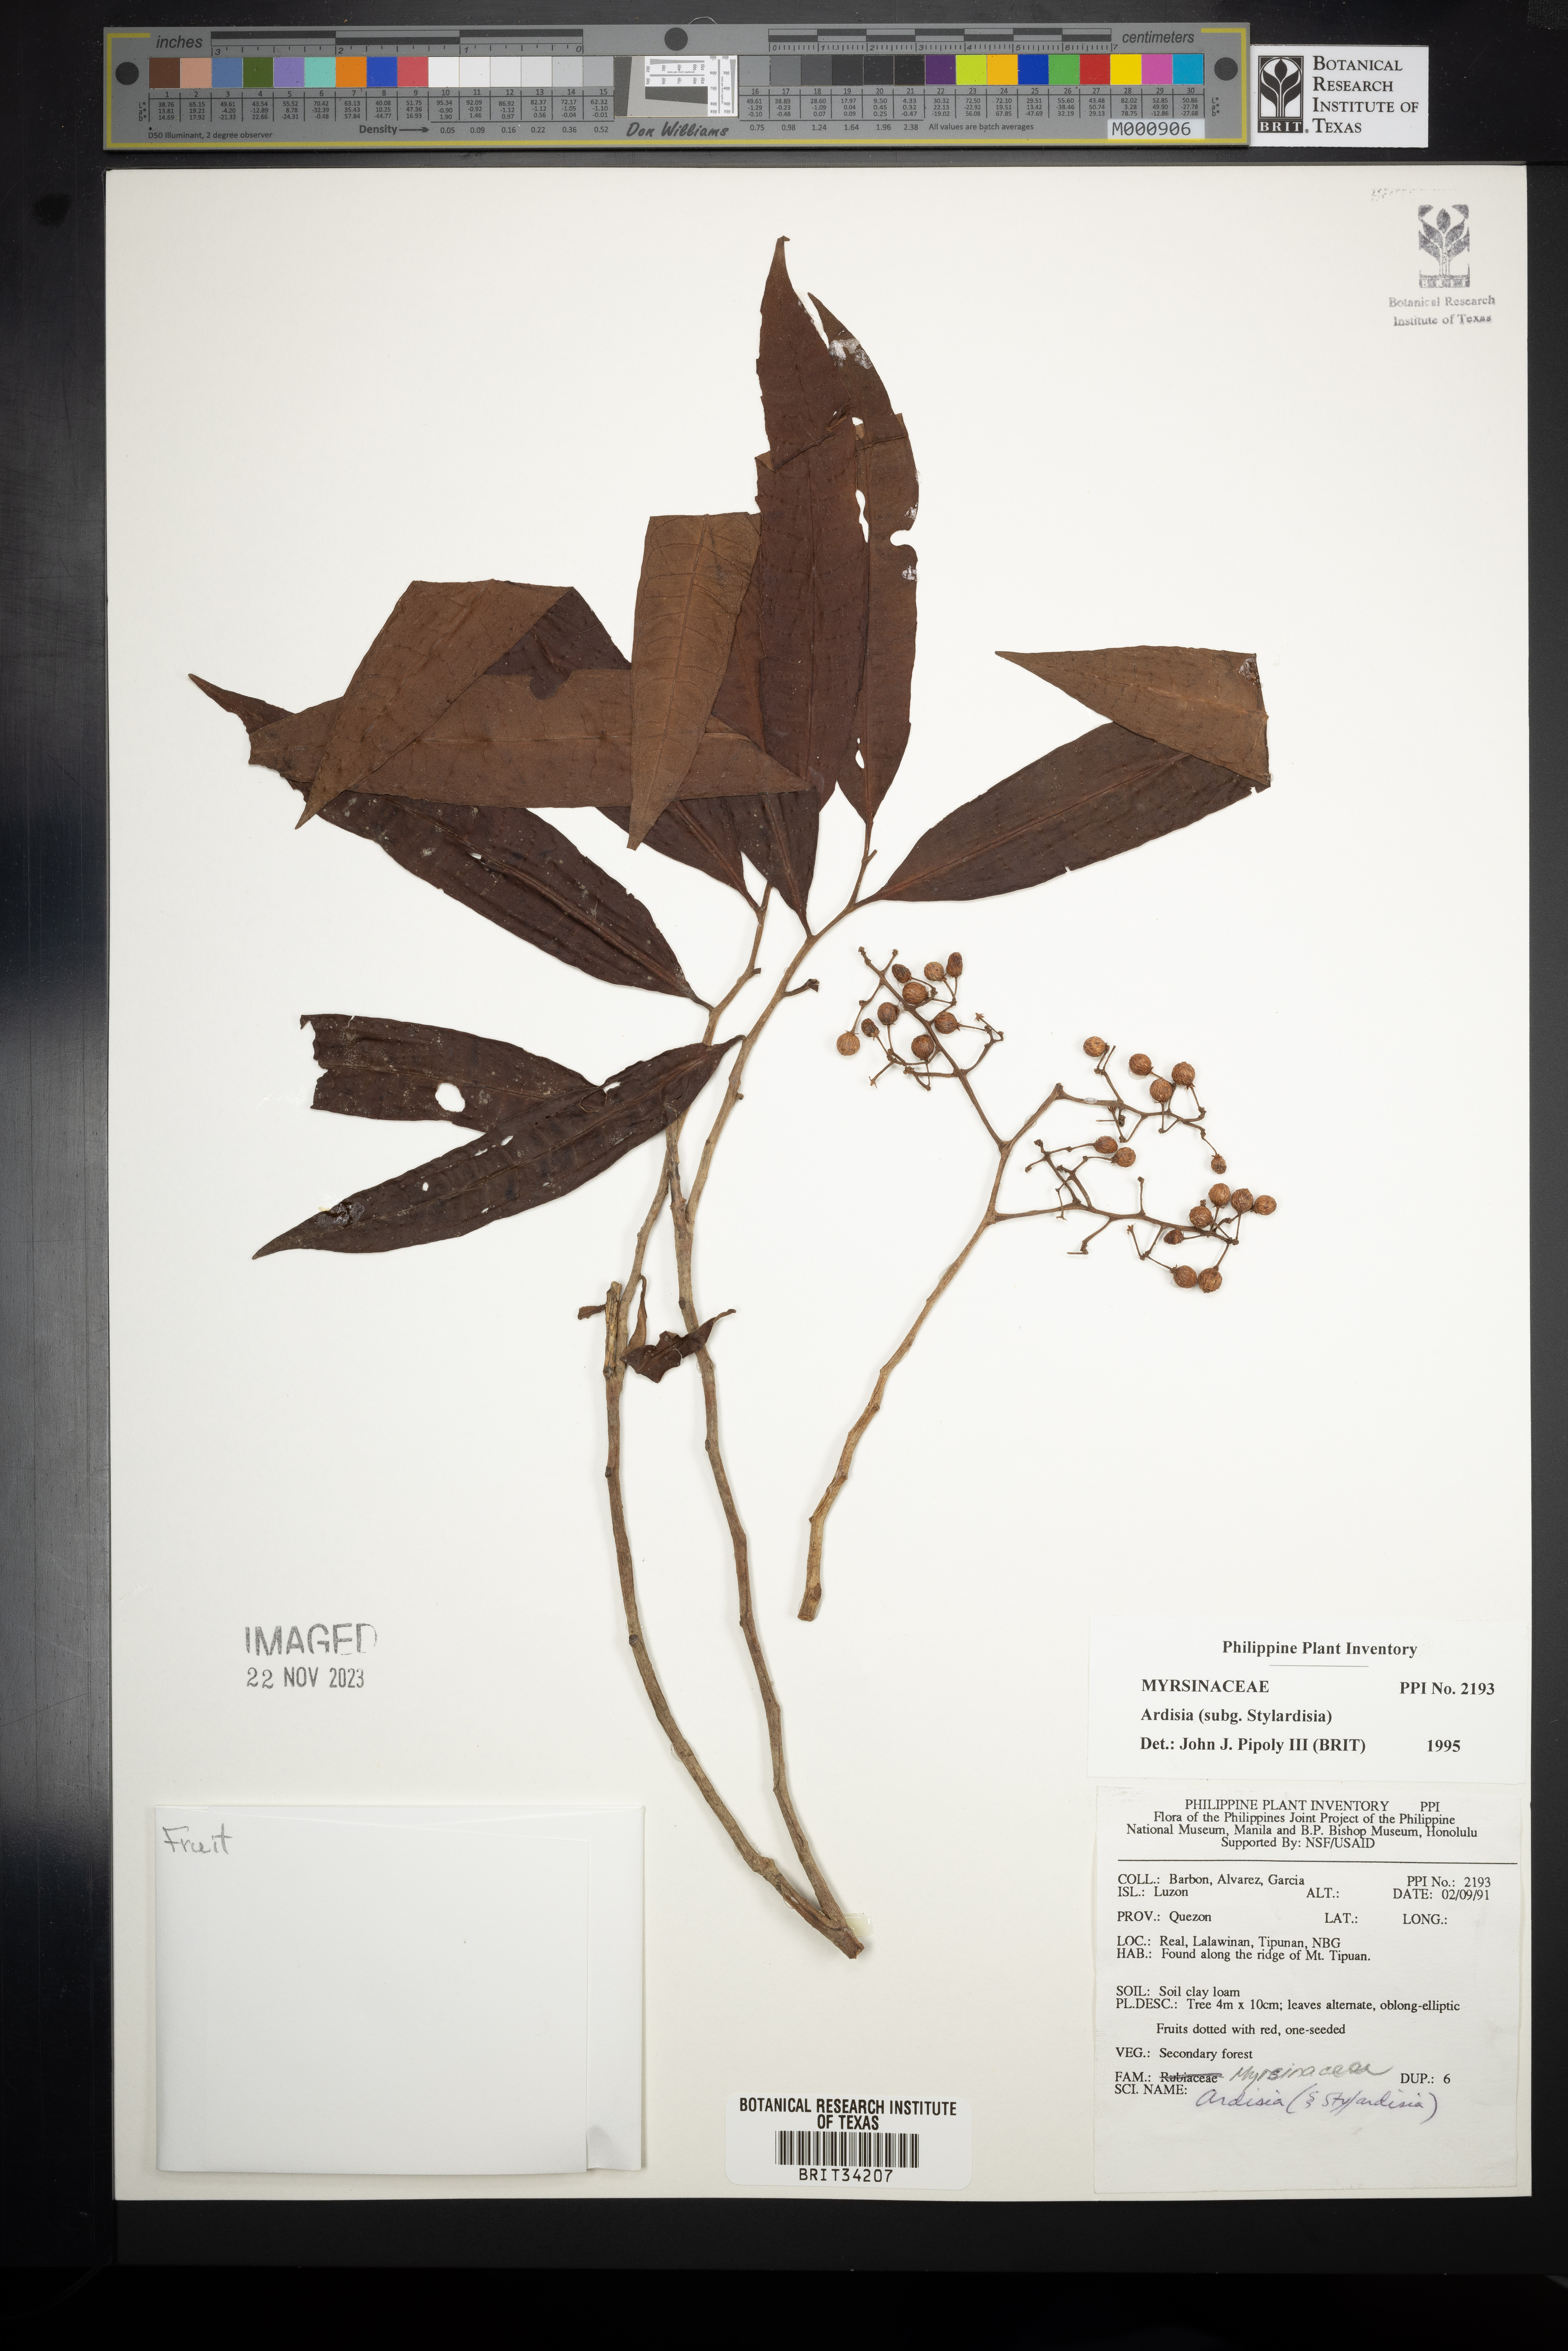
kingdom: Plantae
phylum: Tracheophyta
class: Magnoliopsida
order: Ericales
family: Primulaceae
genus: Ardisia
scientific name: Ardisia
